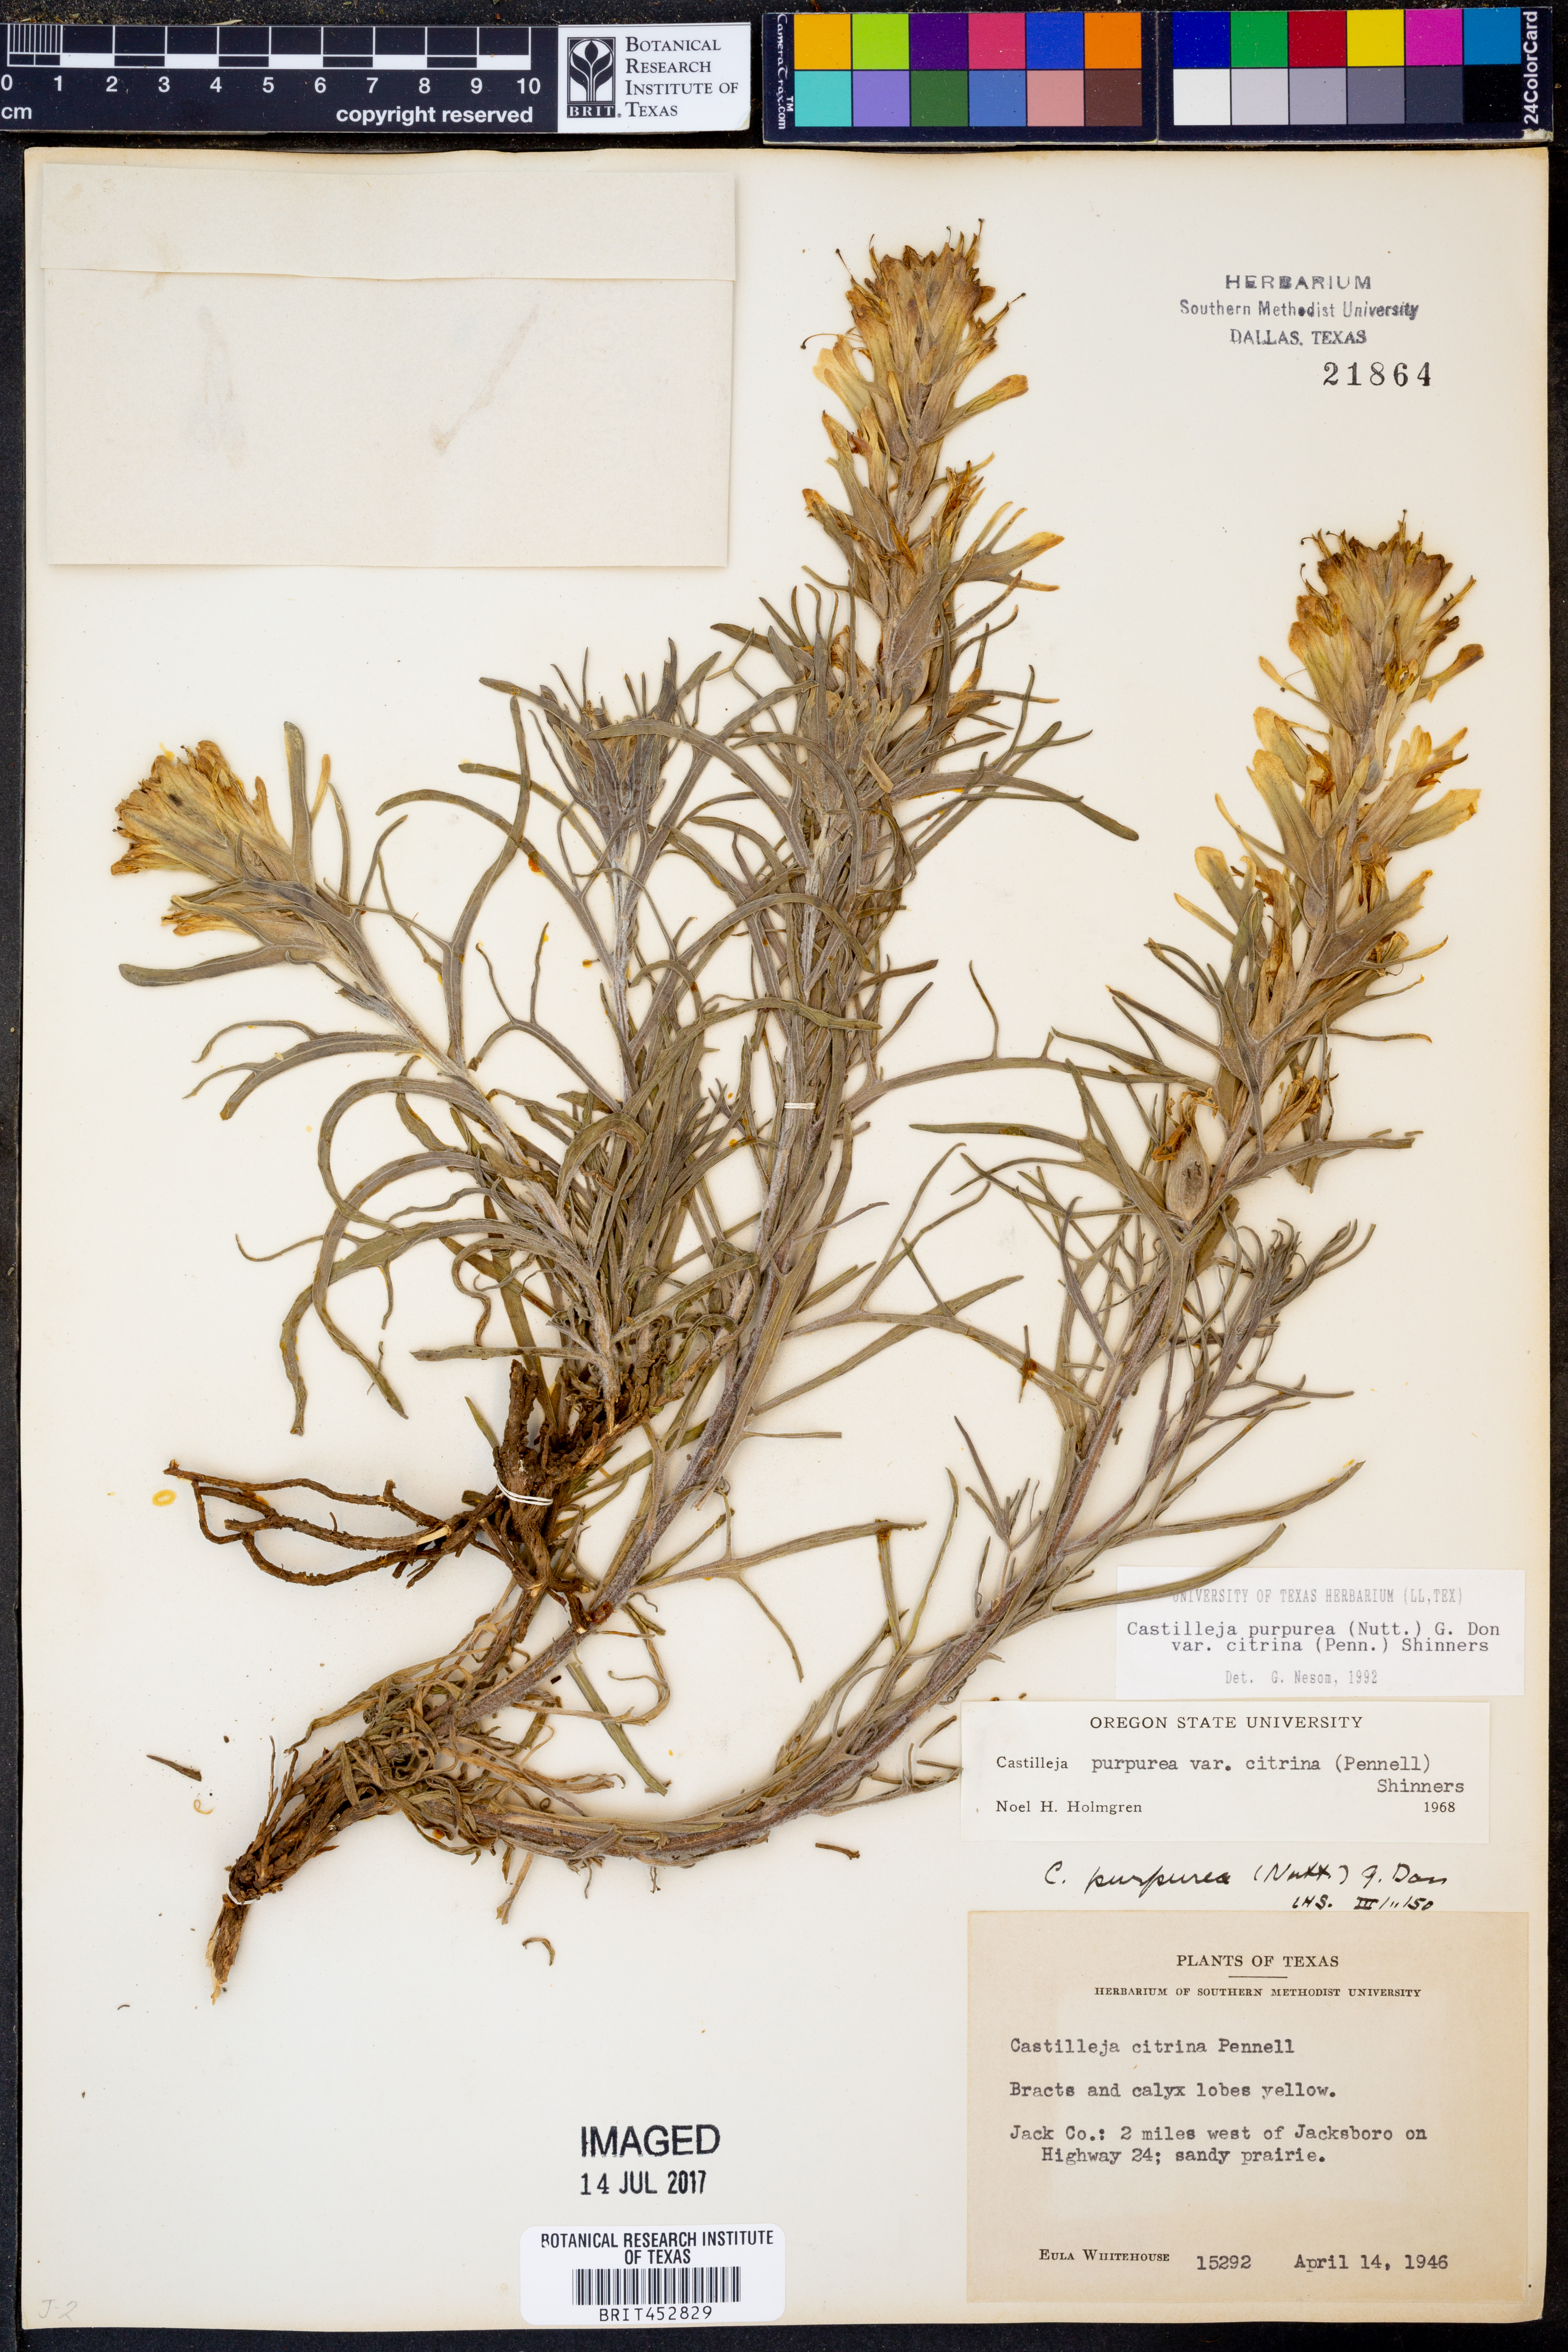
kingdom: Plantae
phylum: Tracheophyta
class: Magnoliopsida
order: Lamiales
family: Orobanchaceae
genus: Castilleja
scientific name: Castilleja citrina
